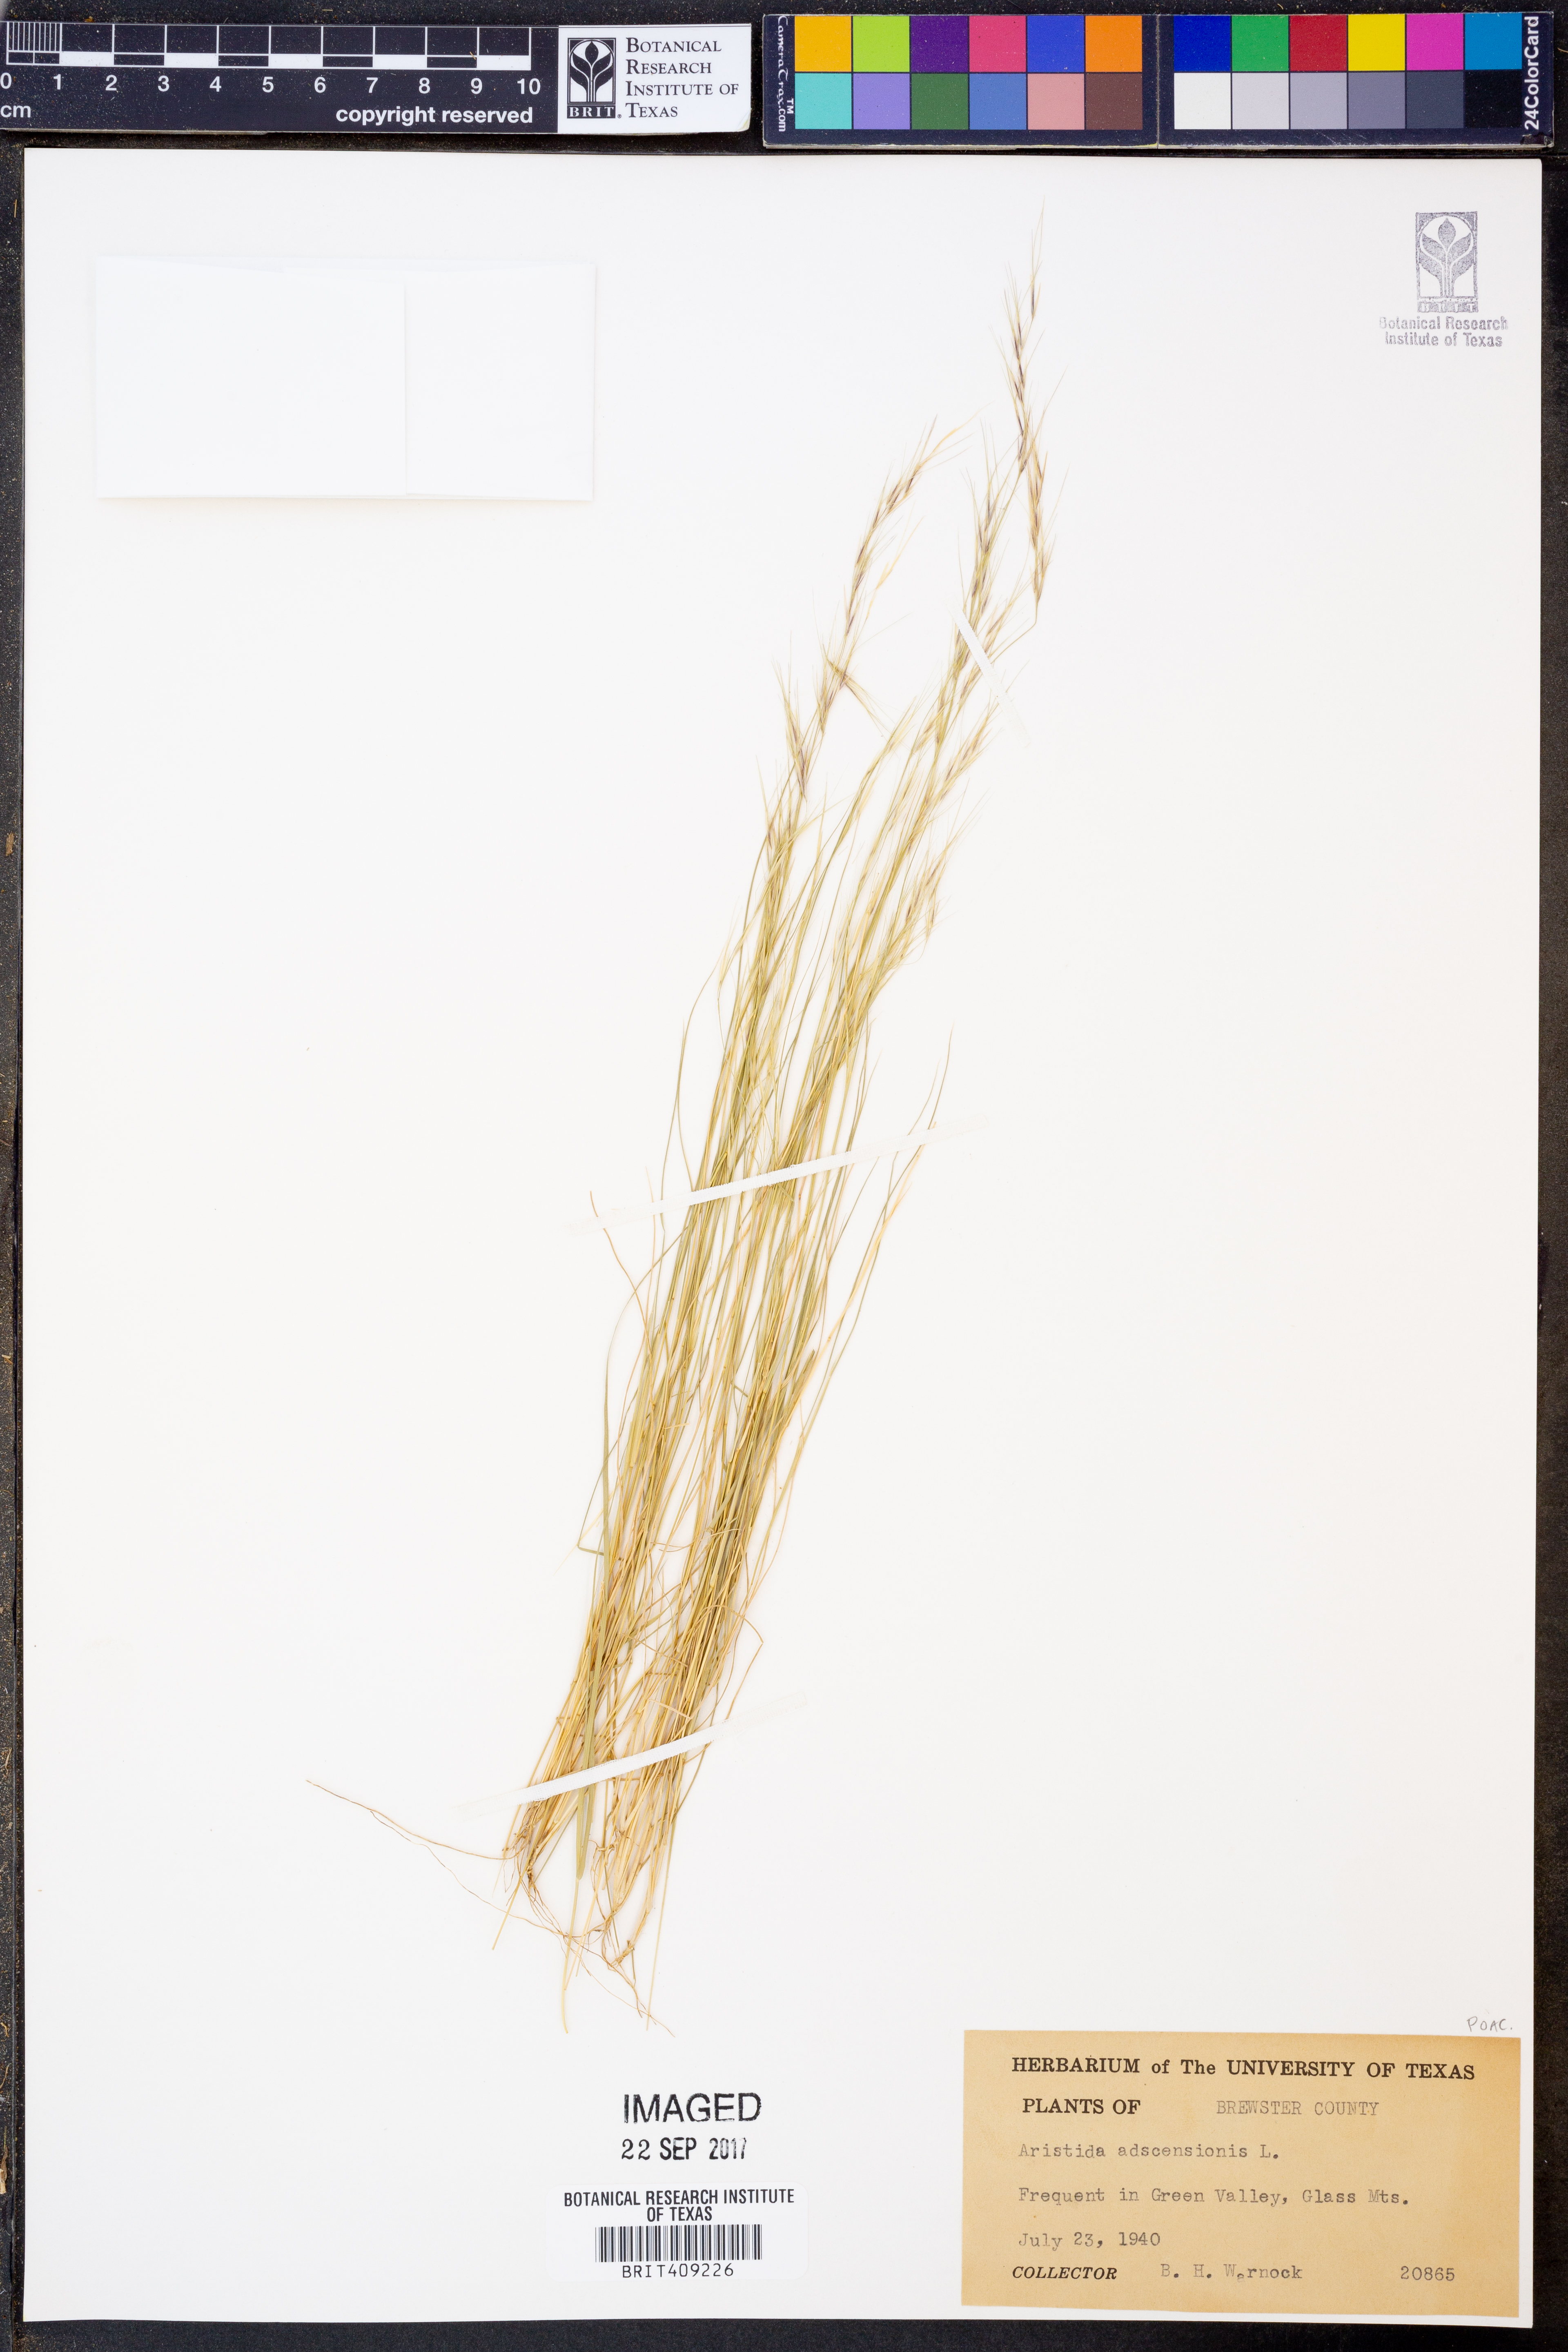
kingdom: Plantae
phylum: Tracheophyta
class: Liliopsida
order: Poales
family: Poaceae
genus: Aristida
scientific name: Aristida adscensionis
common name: Sixweeks threeawn
